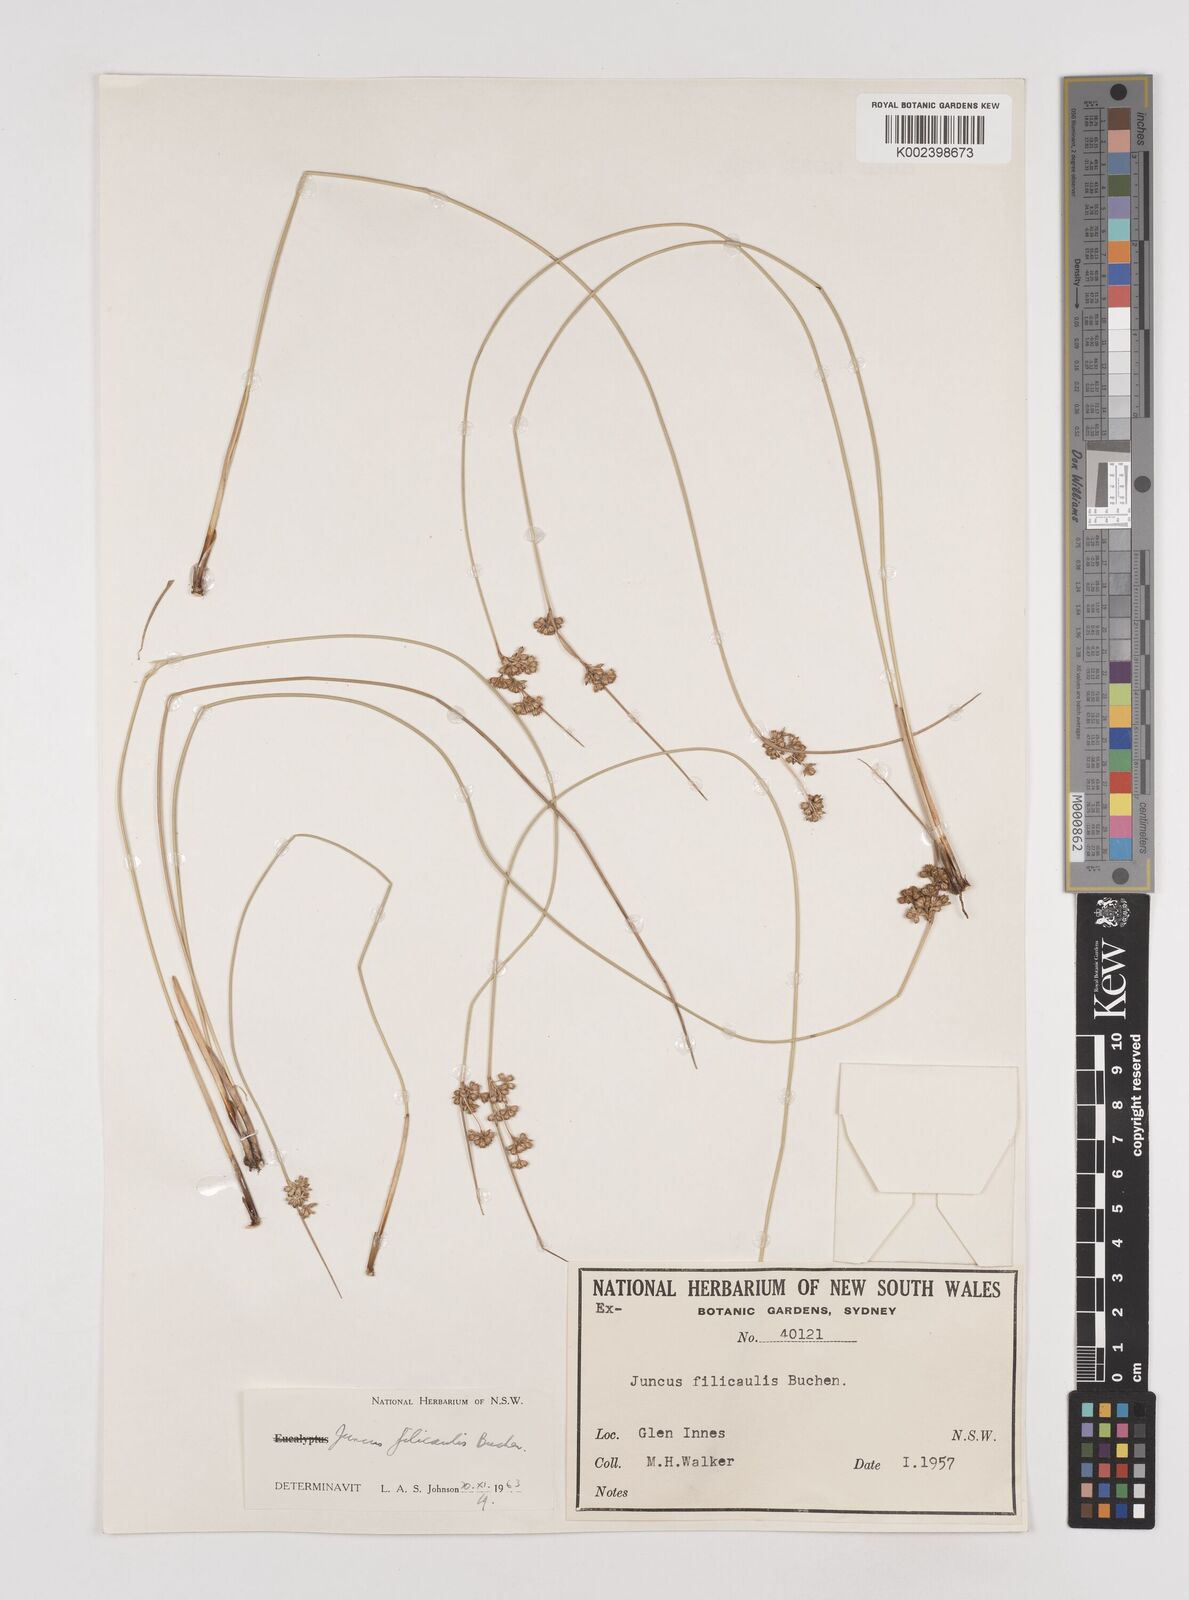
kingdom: Plantae
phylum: Tracheophyta
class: Liliopsida
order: Poales
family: Juncaceae
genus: Juncus
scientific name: Juncus filicaulis
